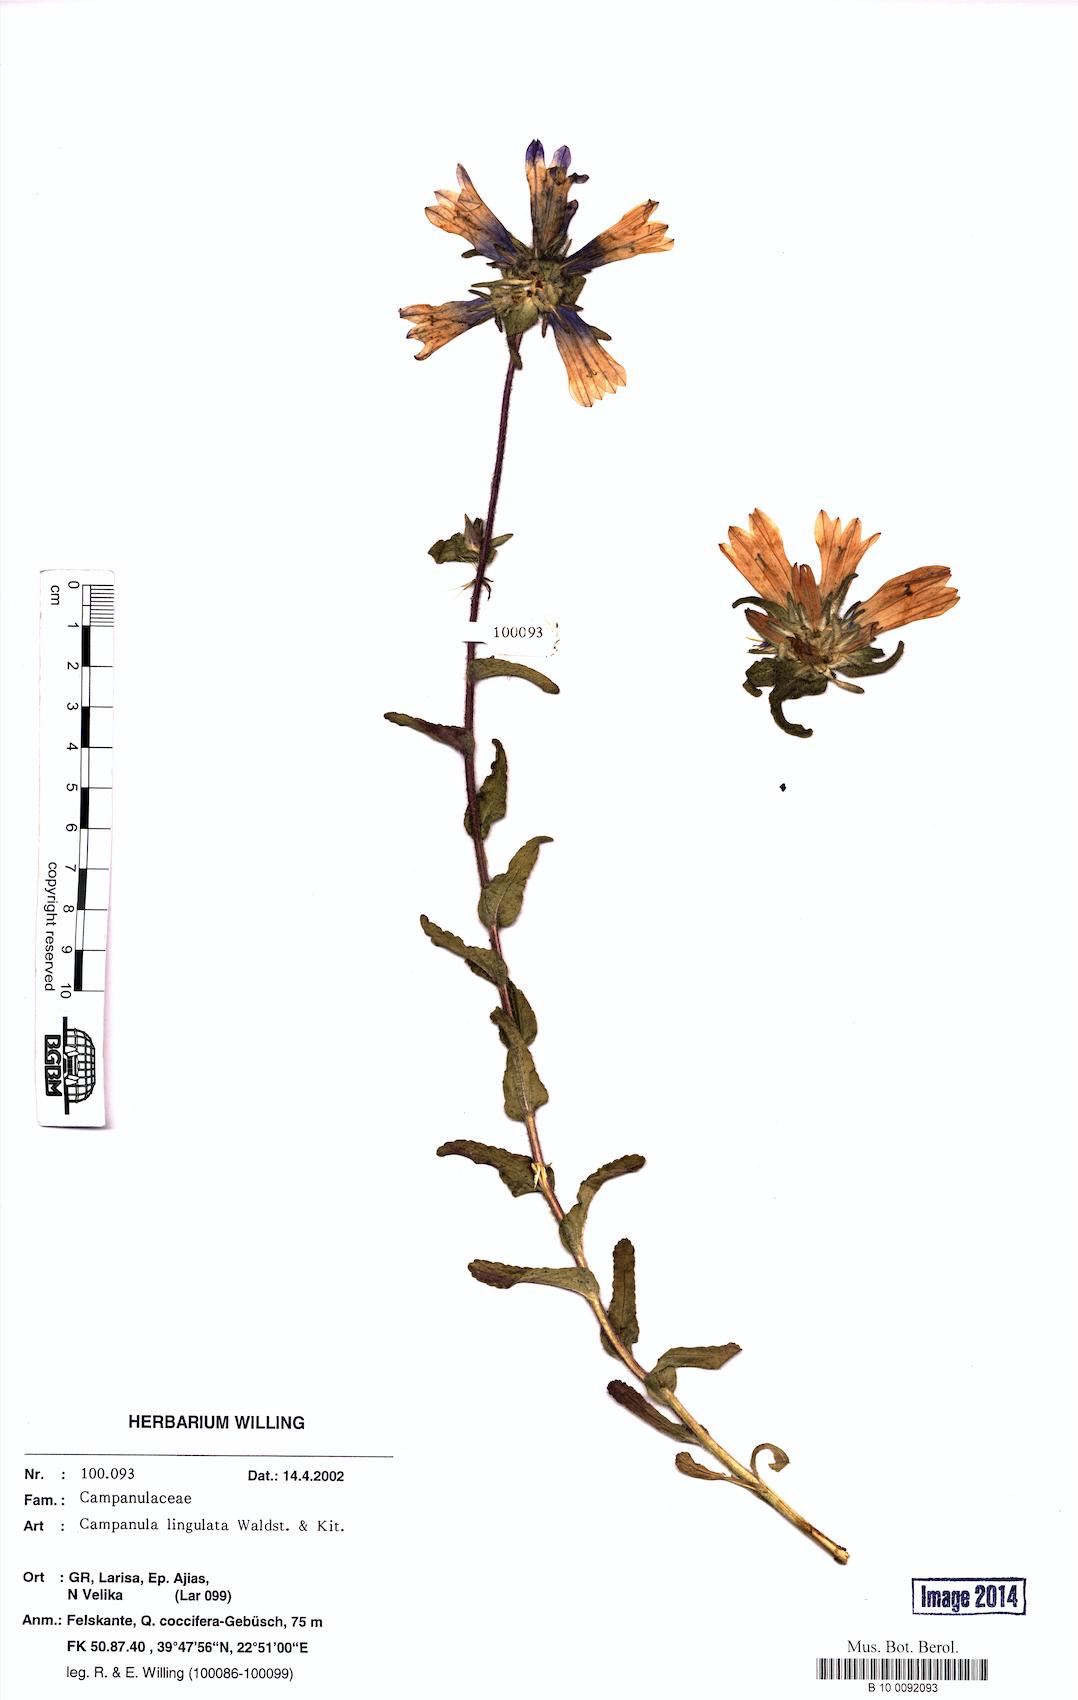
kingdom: Plantae
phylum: Tracheophyta
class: Magnoliopsida
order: Asterales
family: Campanulaceae
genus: Campanula
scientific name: Campanula lingulata
